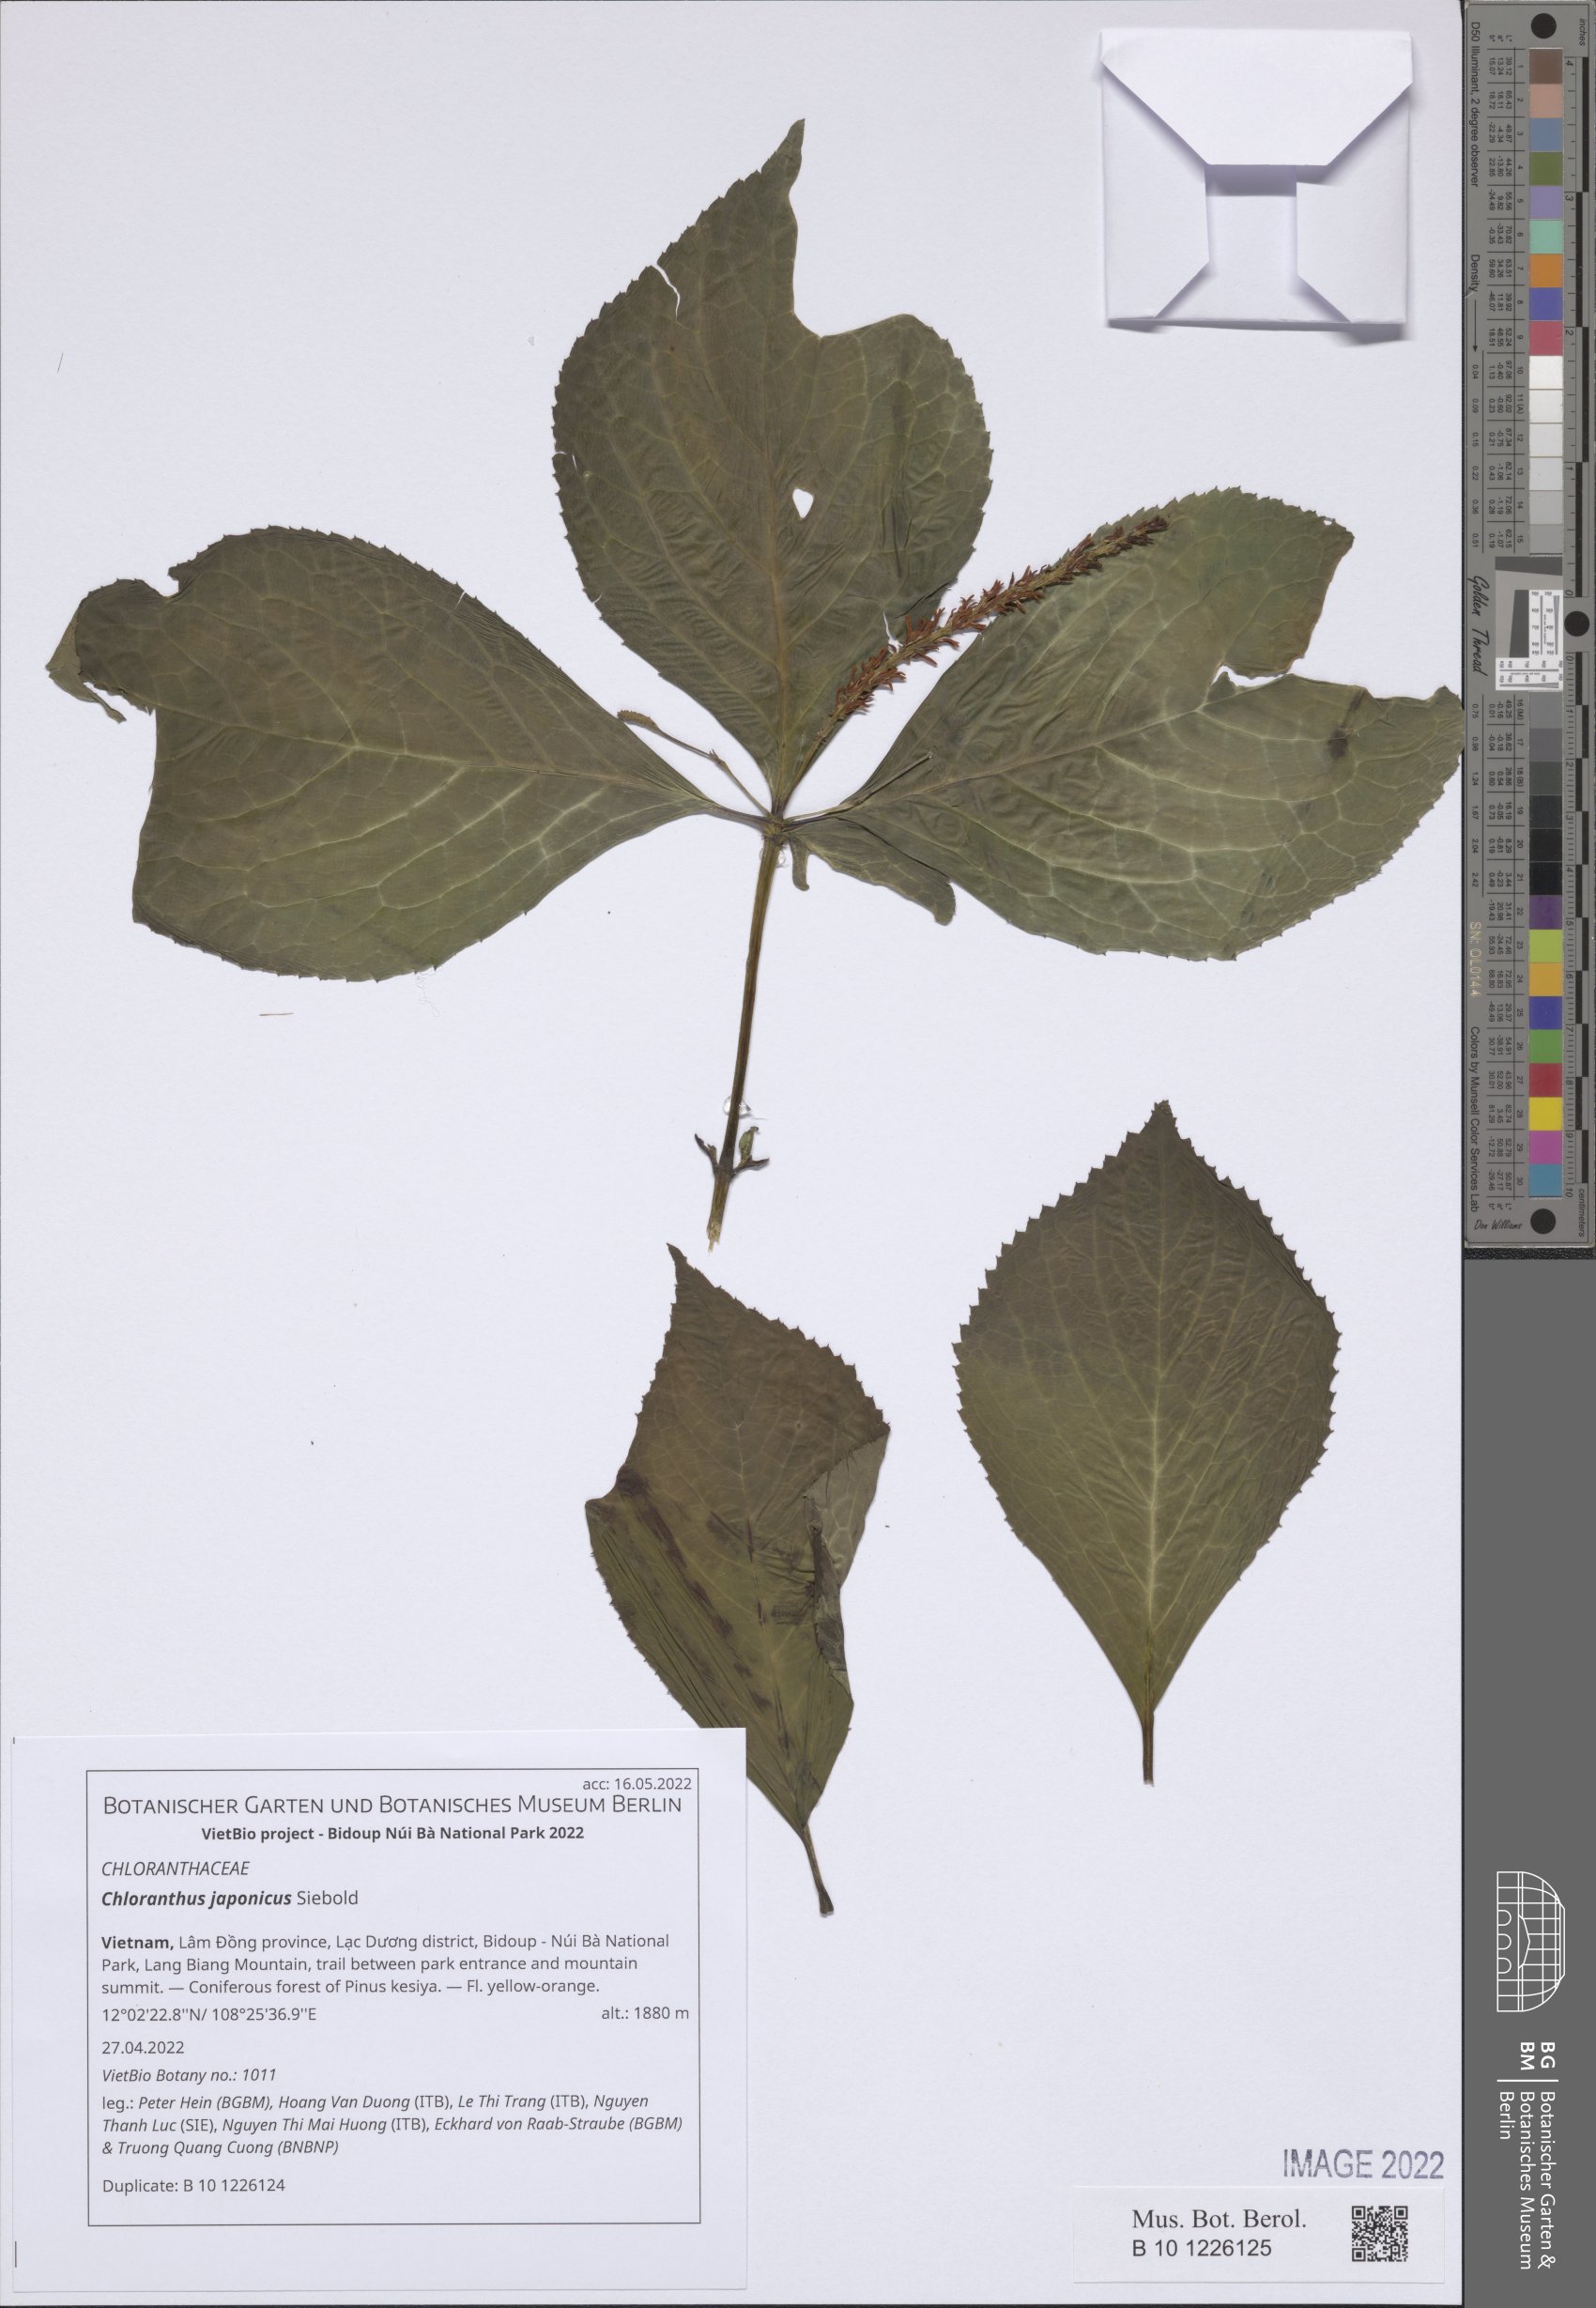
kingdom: Plantae
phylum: Tracheophyta
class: Magnoliopsida
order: Chloranthales
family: Chloranthaceae
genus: Chloranthus
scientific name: Chloranthus japonicus
